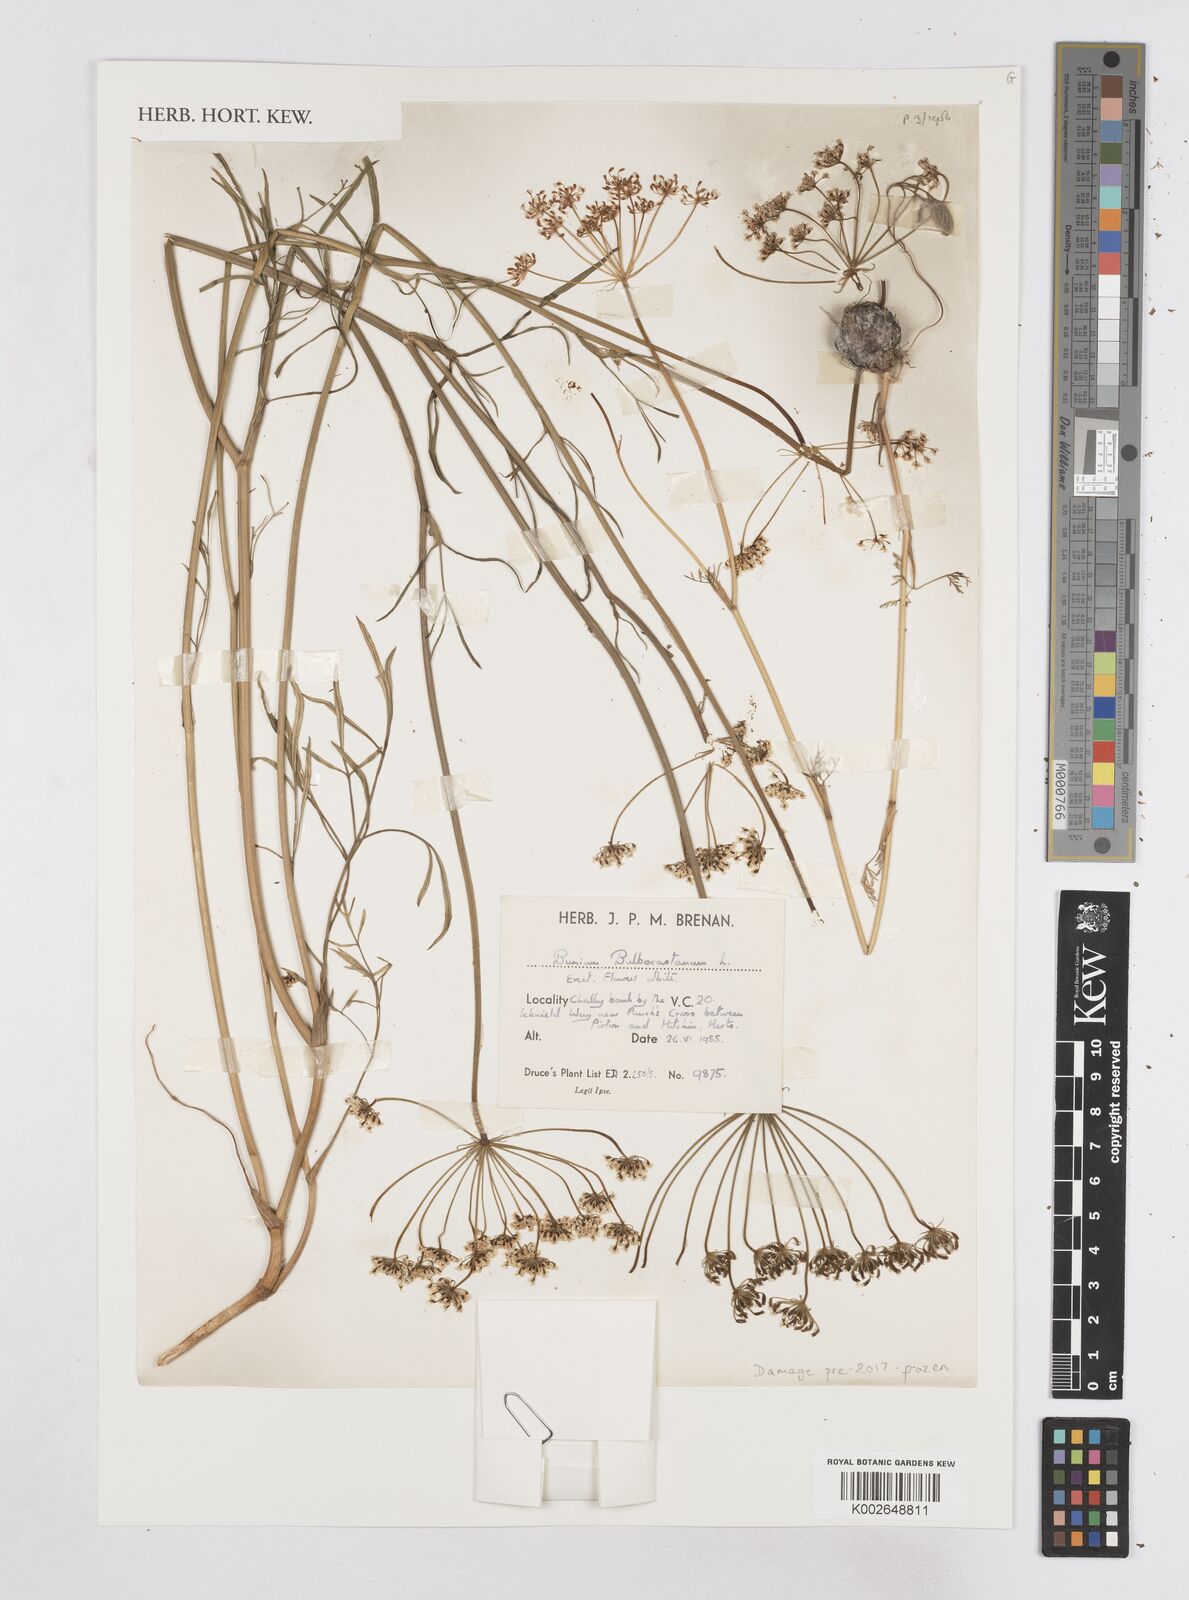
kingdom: Plantae
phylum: Tracheophyta
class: Magnoliopsida
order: Apiales
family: Apiaceae
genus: Bunium
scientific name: Bunium bulbocastanum
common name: Great pignut
